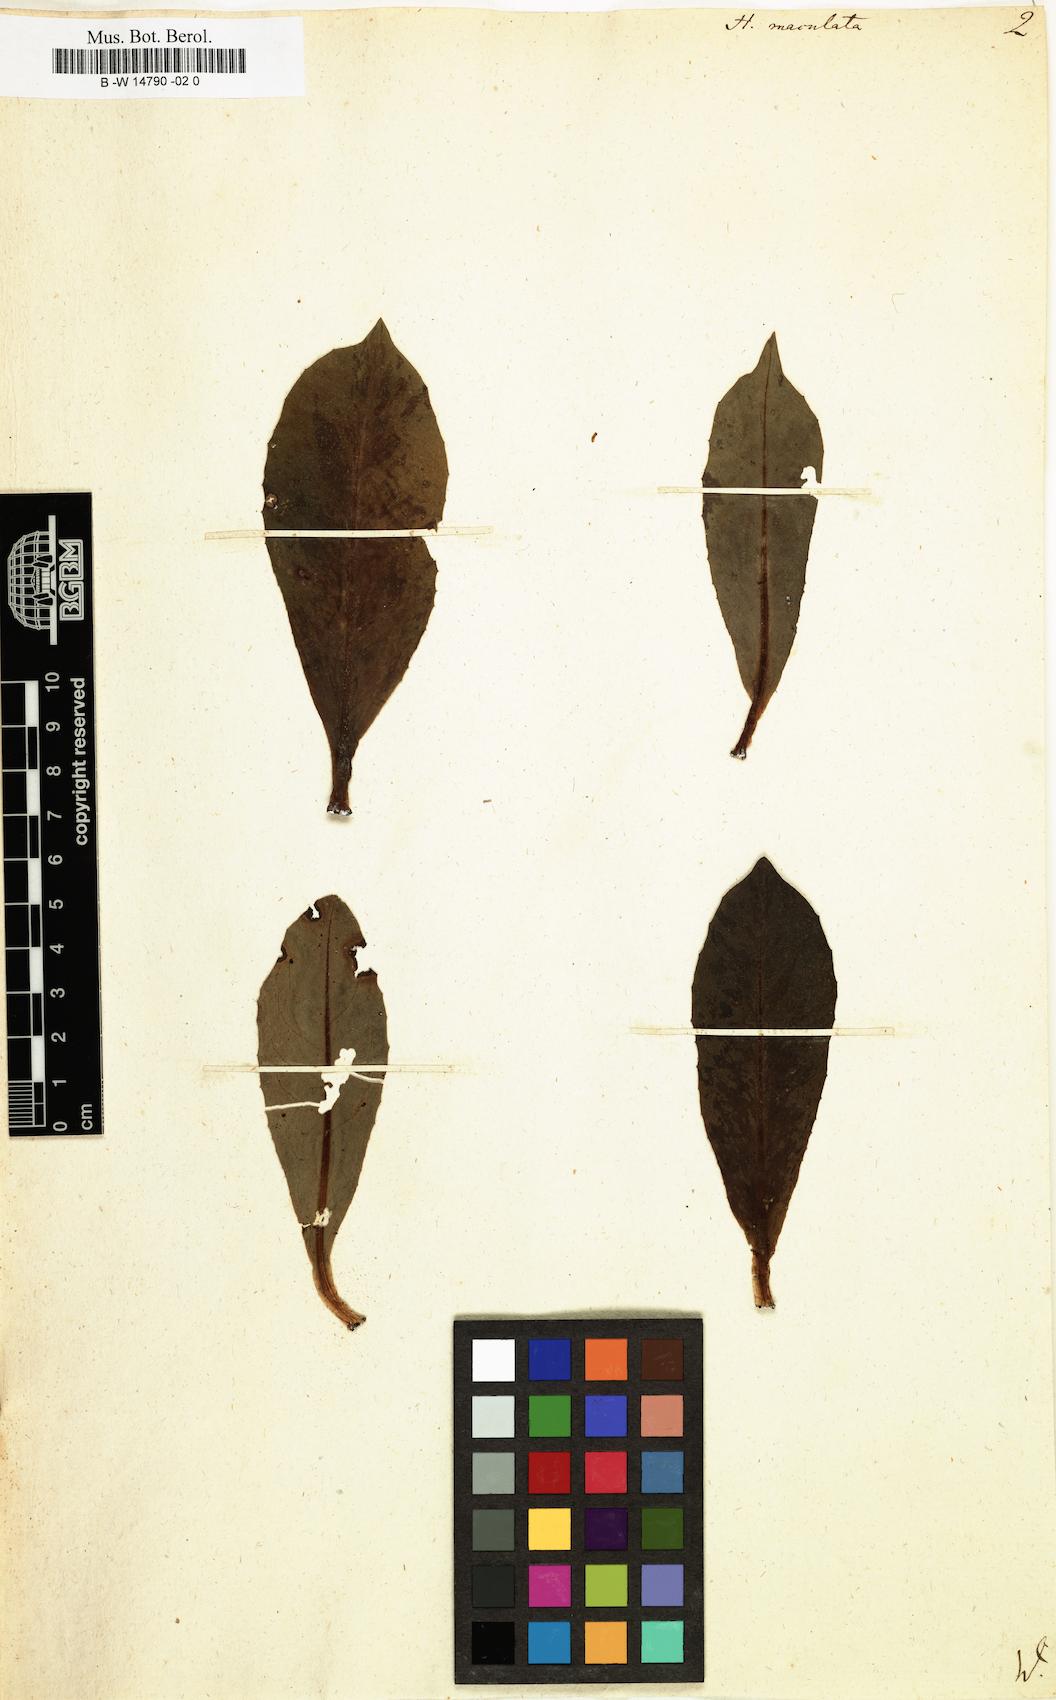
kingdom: Plantae
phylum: Tracheophyta
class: Magnoliopsida
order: Asterales
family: Asteraceae
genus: Trommsdorffia
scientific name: Trommsdorffia maculata
